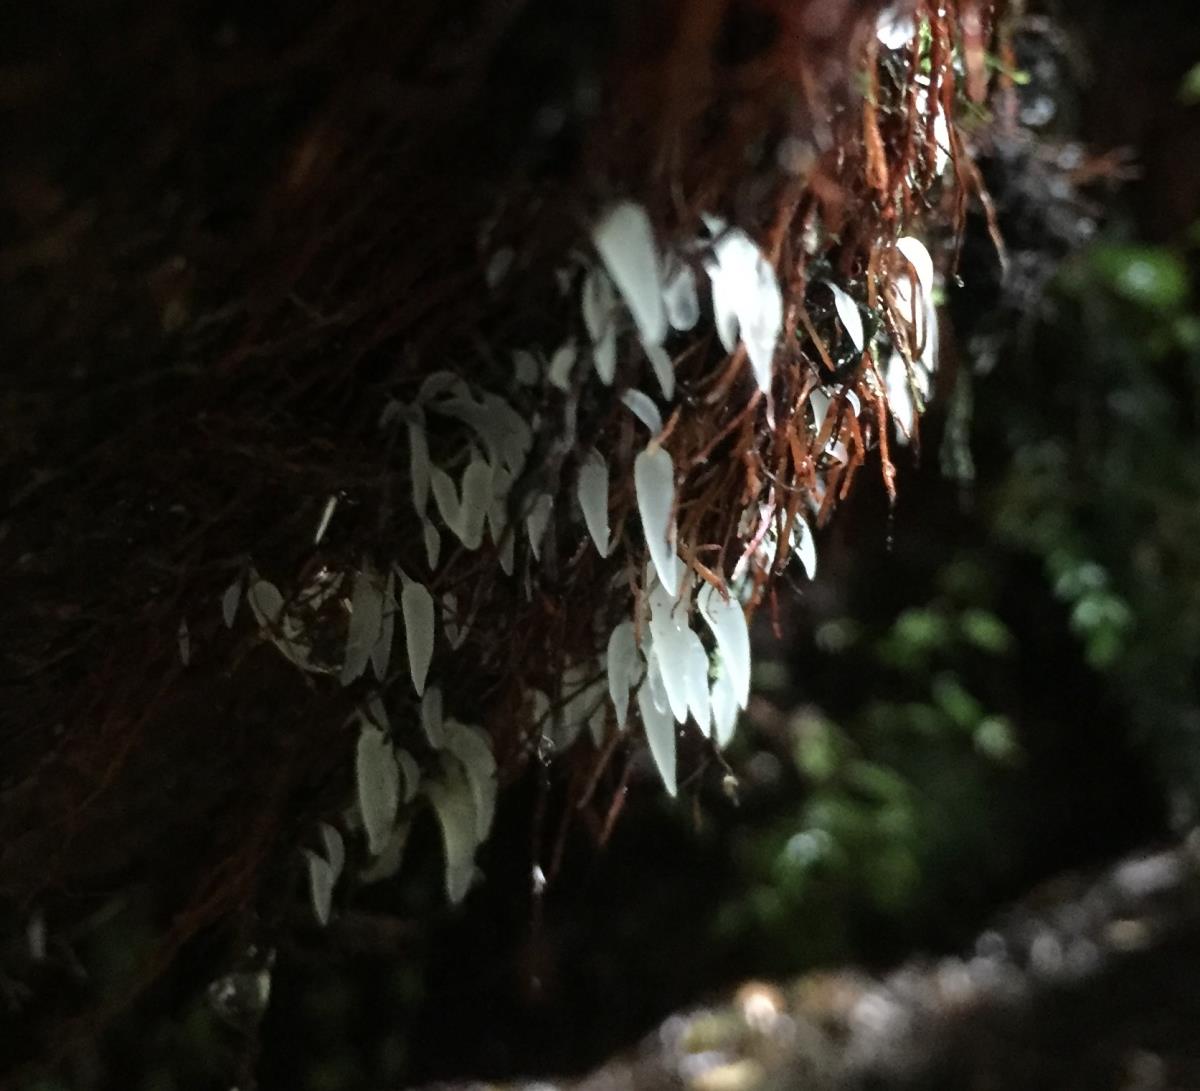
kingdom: Fungi
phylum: Basidiomycota
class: Agaricomycetes
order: Agaricales
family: Clavariaceae
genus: Mucronella
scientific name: Mucronella
